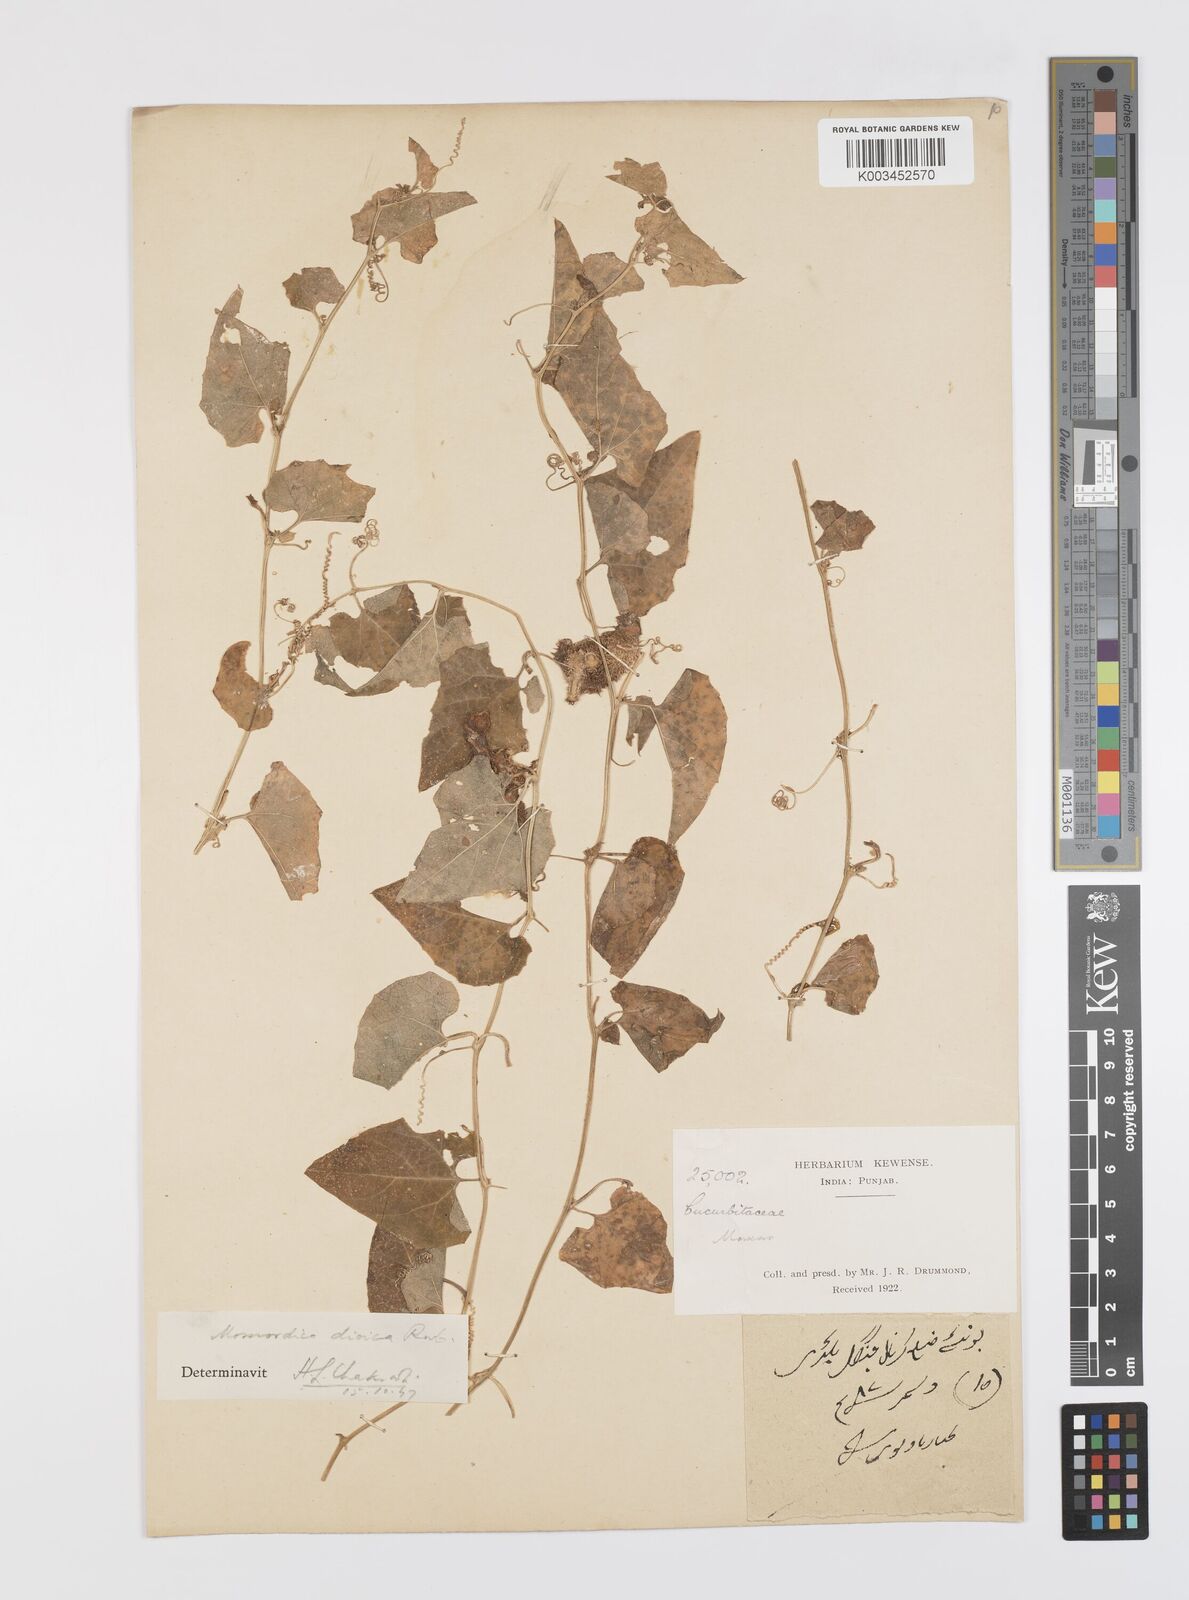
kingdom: Plantae
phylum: Tracheophyta
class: Magnoliopsida
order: Cucurbitales
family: Cucurbitaceae
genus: Momordica
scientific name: Momordica dioica
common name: Spine gourd
